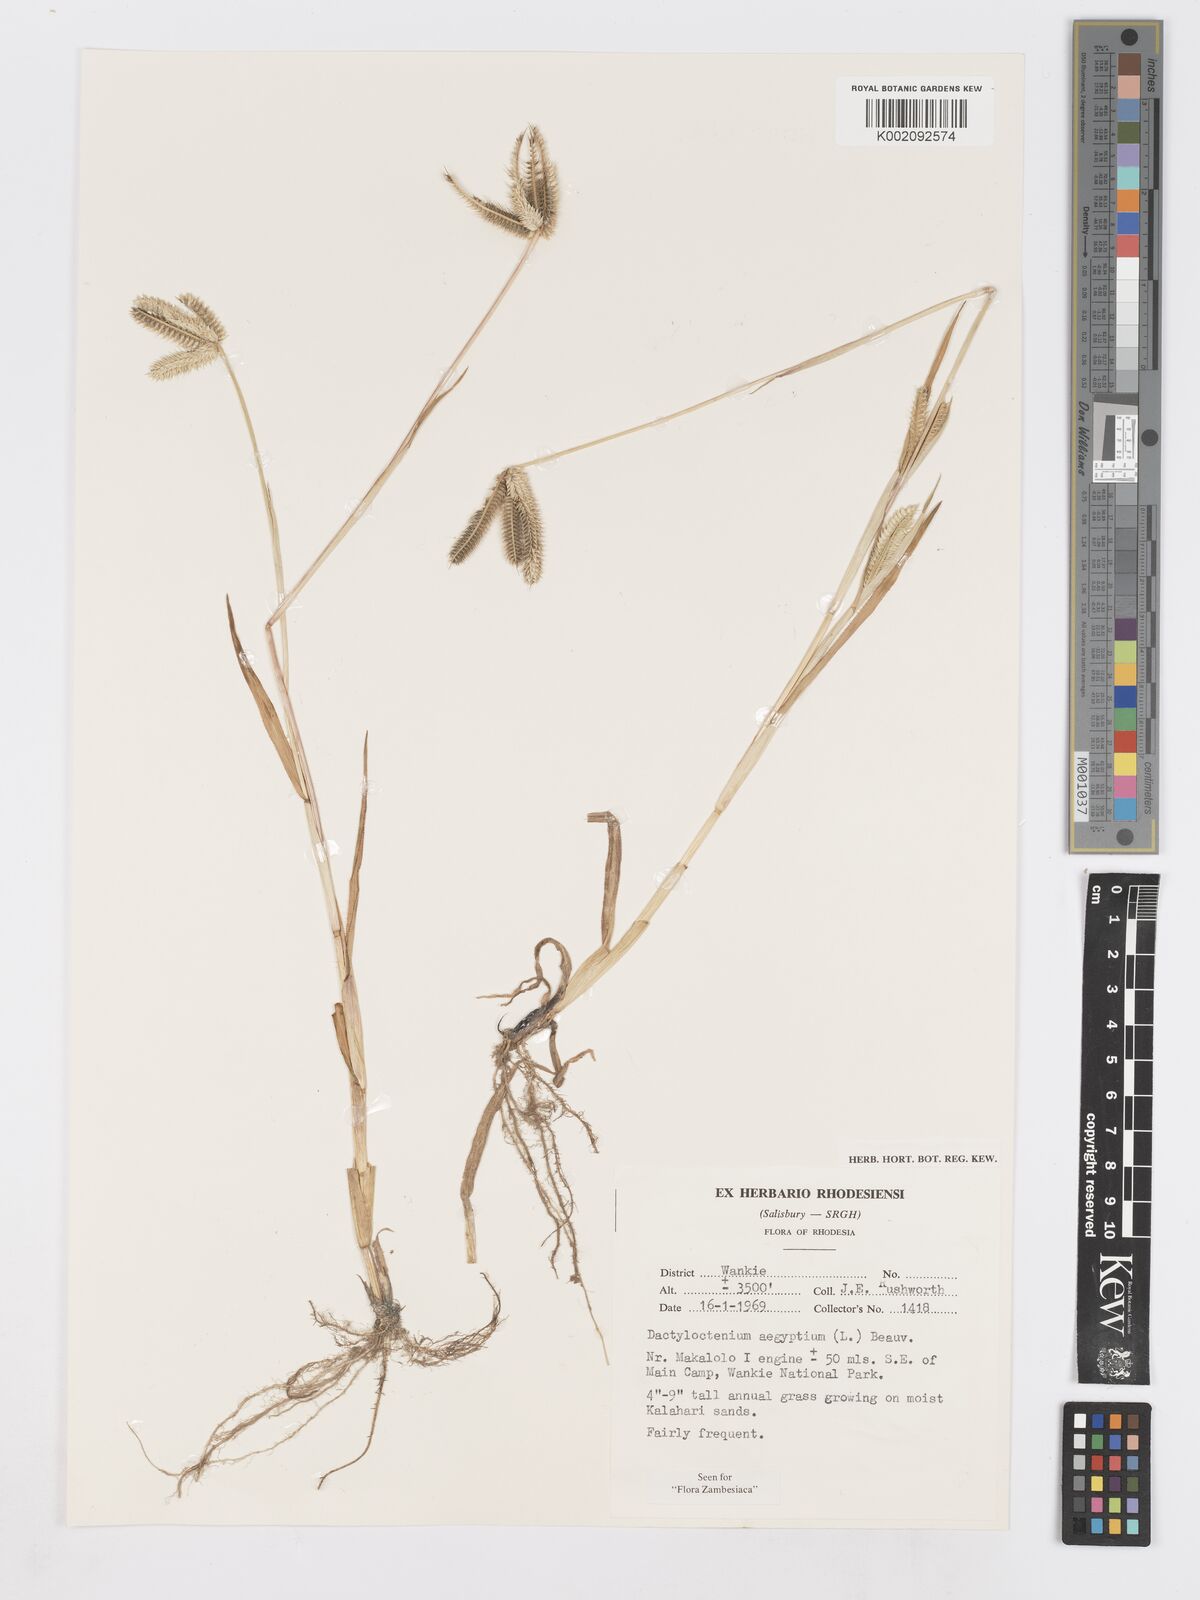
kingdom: Plantae
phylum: Tracheophyta
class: Liliopsida
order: Poales
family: Poaceae
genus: Dactyloctenium
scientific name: Dactyloctenium aegyptium
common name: Egyptian grass
